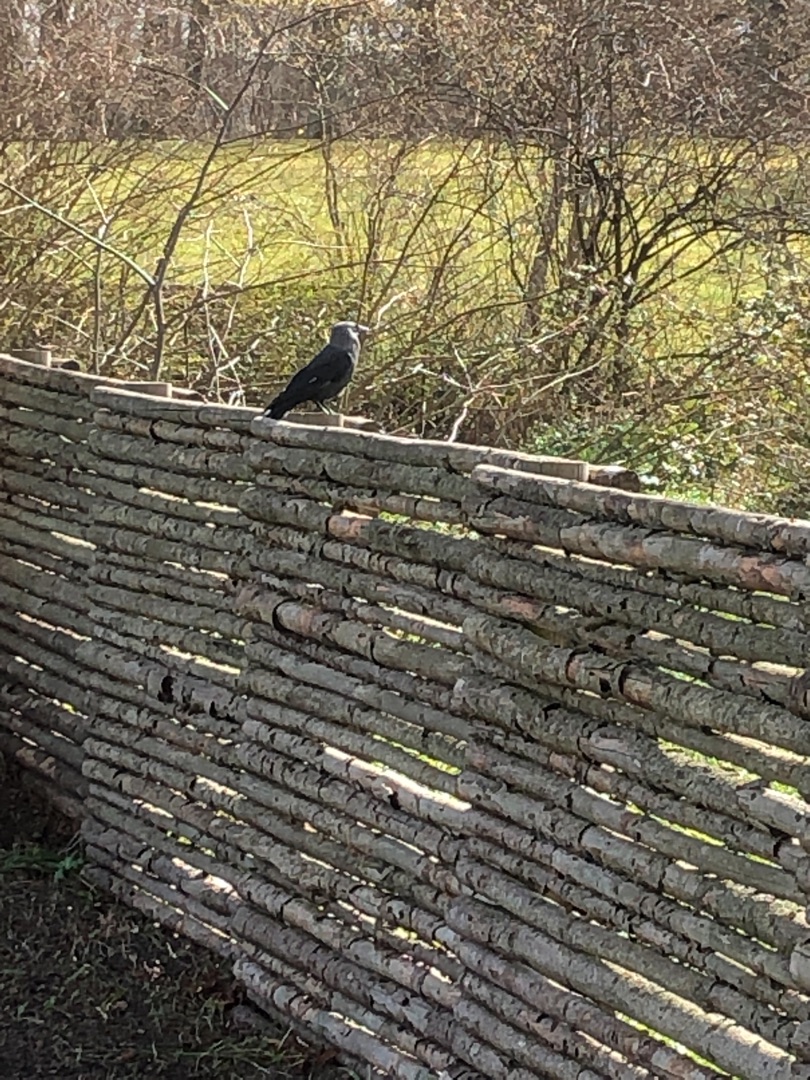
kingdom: Animalia
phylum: Chordata
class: Aves
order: Passeriformes
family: Corvidae
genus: Coloeus
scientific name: Coloeus monedula
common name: Allike
